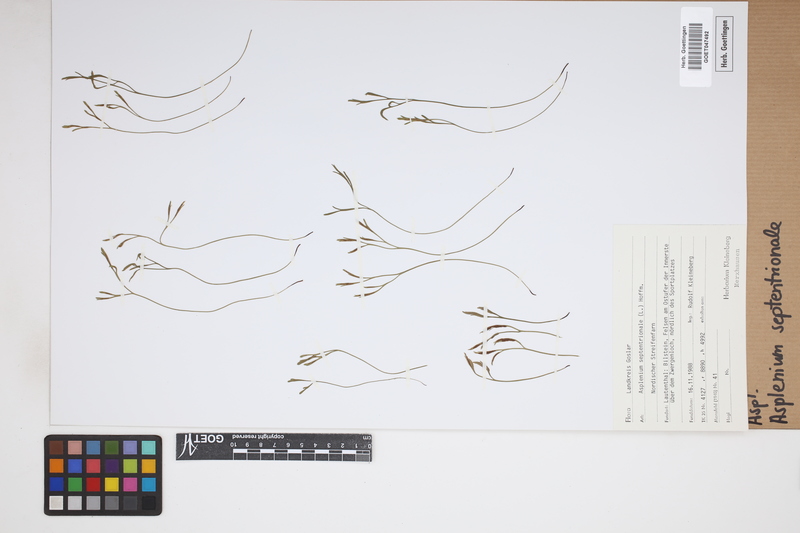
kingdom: Plantae
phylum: Tracheophyta
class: Polypodiopsida
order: Polypodiales
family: Aspleniaceae
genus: Asplenium
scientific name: Asplenium septentrionale
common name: Forked spleenwort
